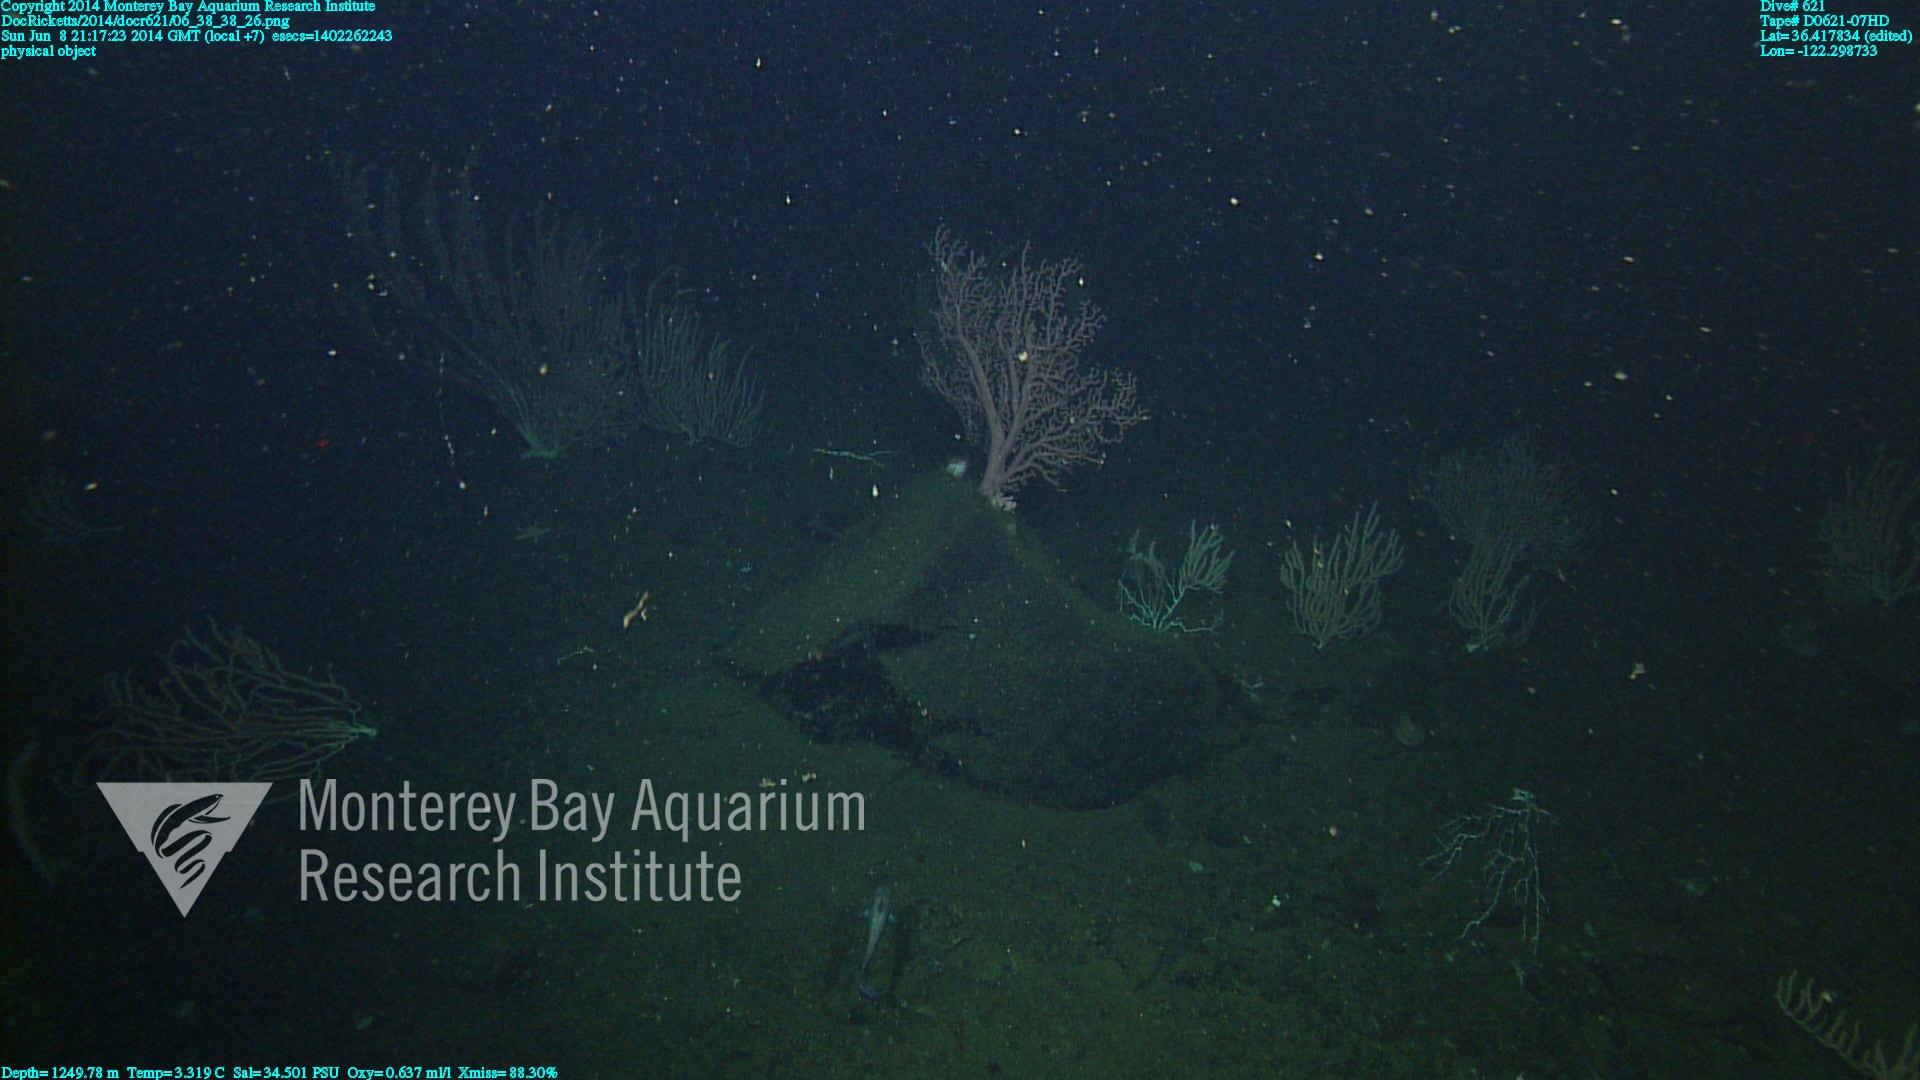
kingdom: Animalia
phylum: Cnidaria
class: Anthozoa
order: Scleralcyonacea
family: Coralliidae
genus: Paragorgia
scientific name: Paragorgia arborea
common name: Bubble gum coral
